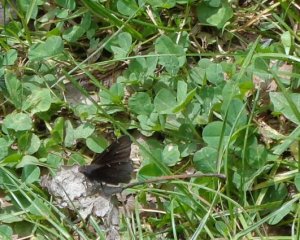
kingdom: Animalia
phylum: Arthropoda
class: Insecta
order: Lepidoptera
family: Hesperiidae
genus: Autochton
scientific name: Autochton
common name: Northern Cloudywing
